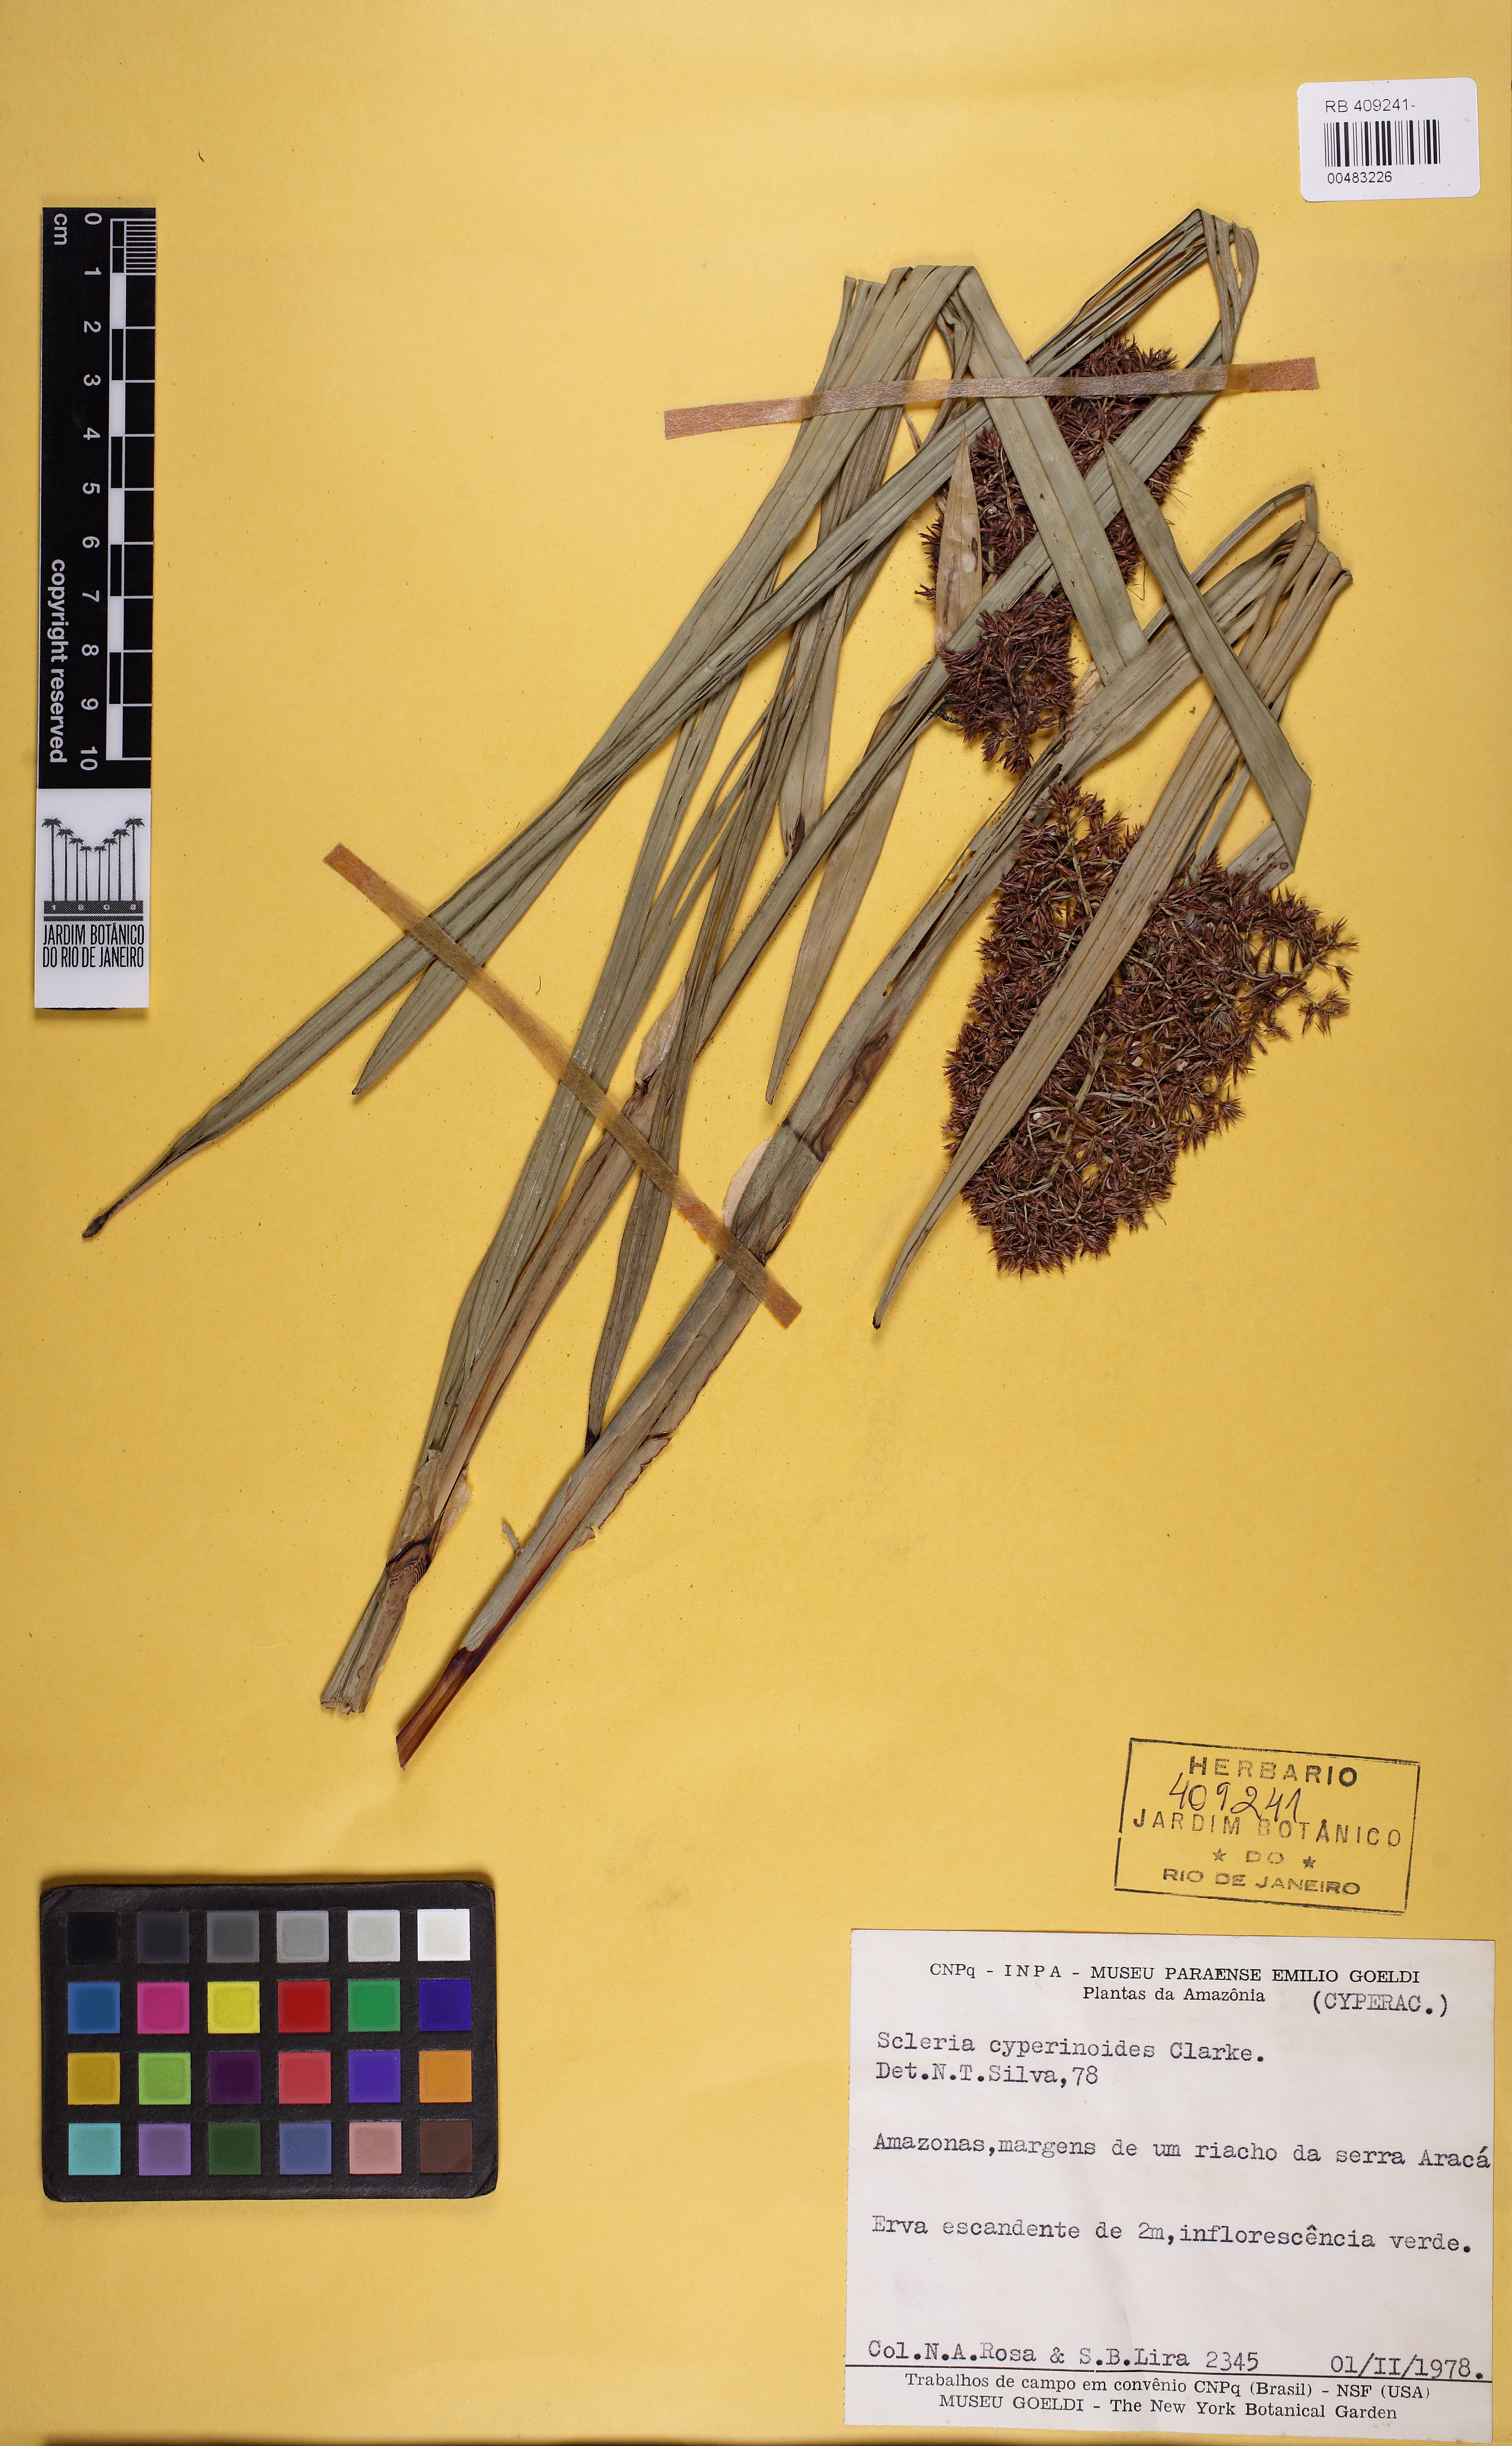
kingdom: Plantae
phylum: Tracheophyta
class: Liliopsida
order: Poales
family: Cyperaceae
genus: Scleria
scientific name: Scleria martii
